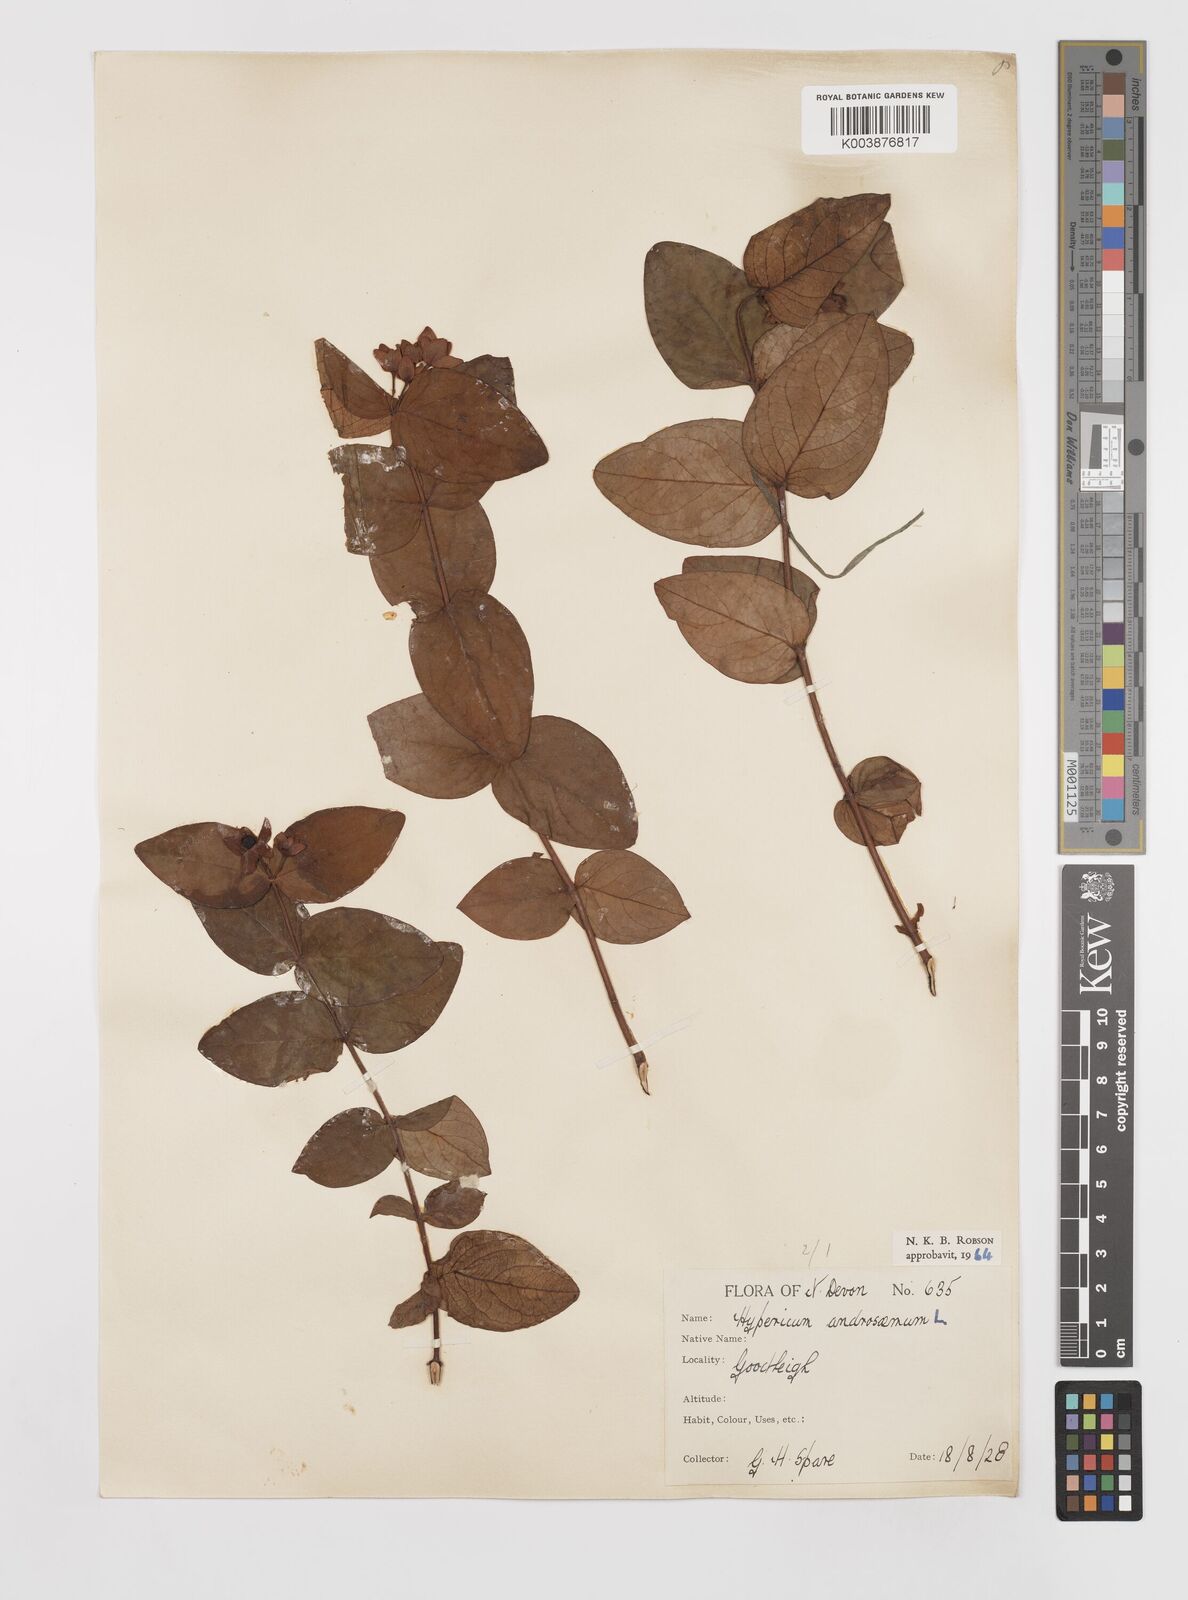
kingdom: Plantae
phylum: Tracheophyta
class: Magnoliopsida
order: Malpighiales
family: Hypericaceae
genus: Hypericum
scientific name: Hypericum androsaemum
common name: Sweet-amber
